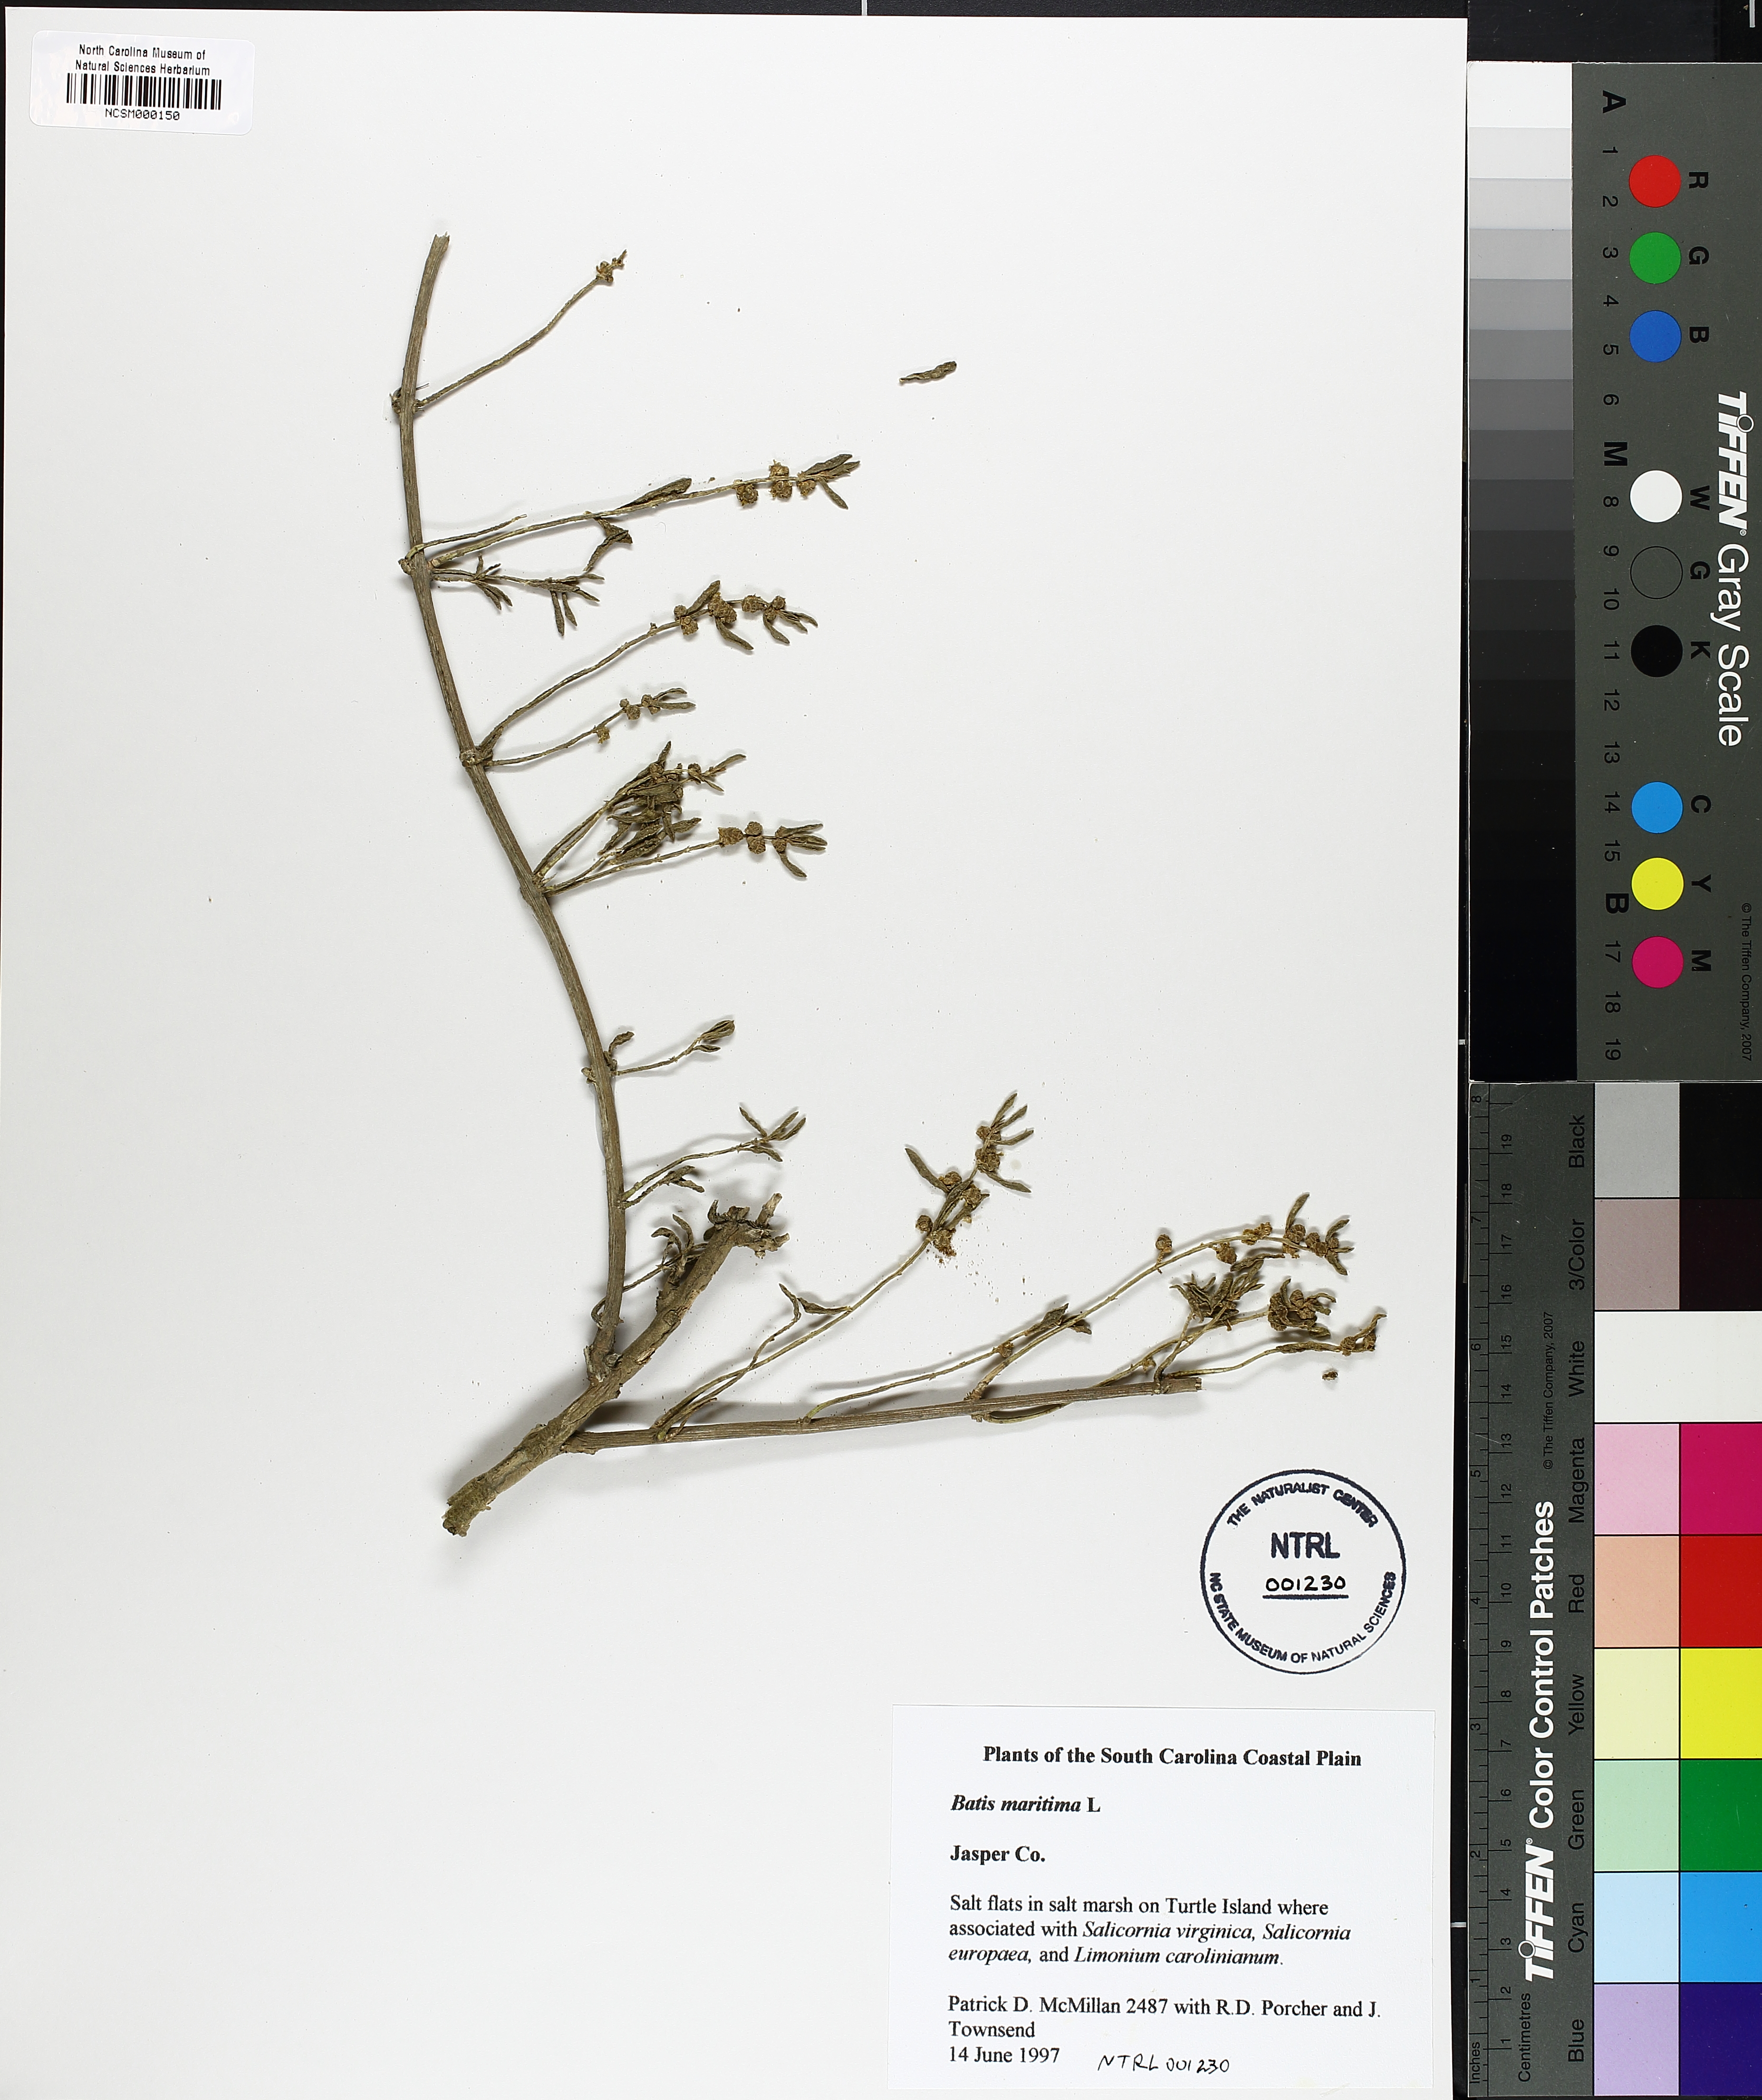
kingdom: Plantae
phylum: Tracheophyta
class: Magnoliopsida
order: Brassicales
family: Bataceae
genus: Batis
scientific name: Batis maritima
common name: Turtleweed
